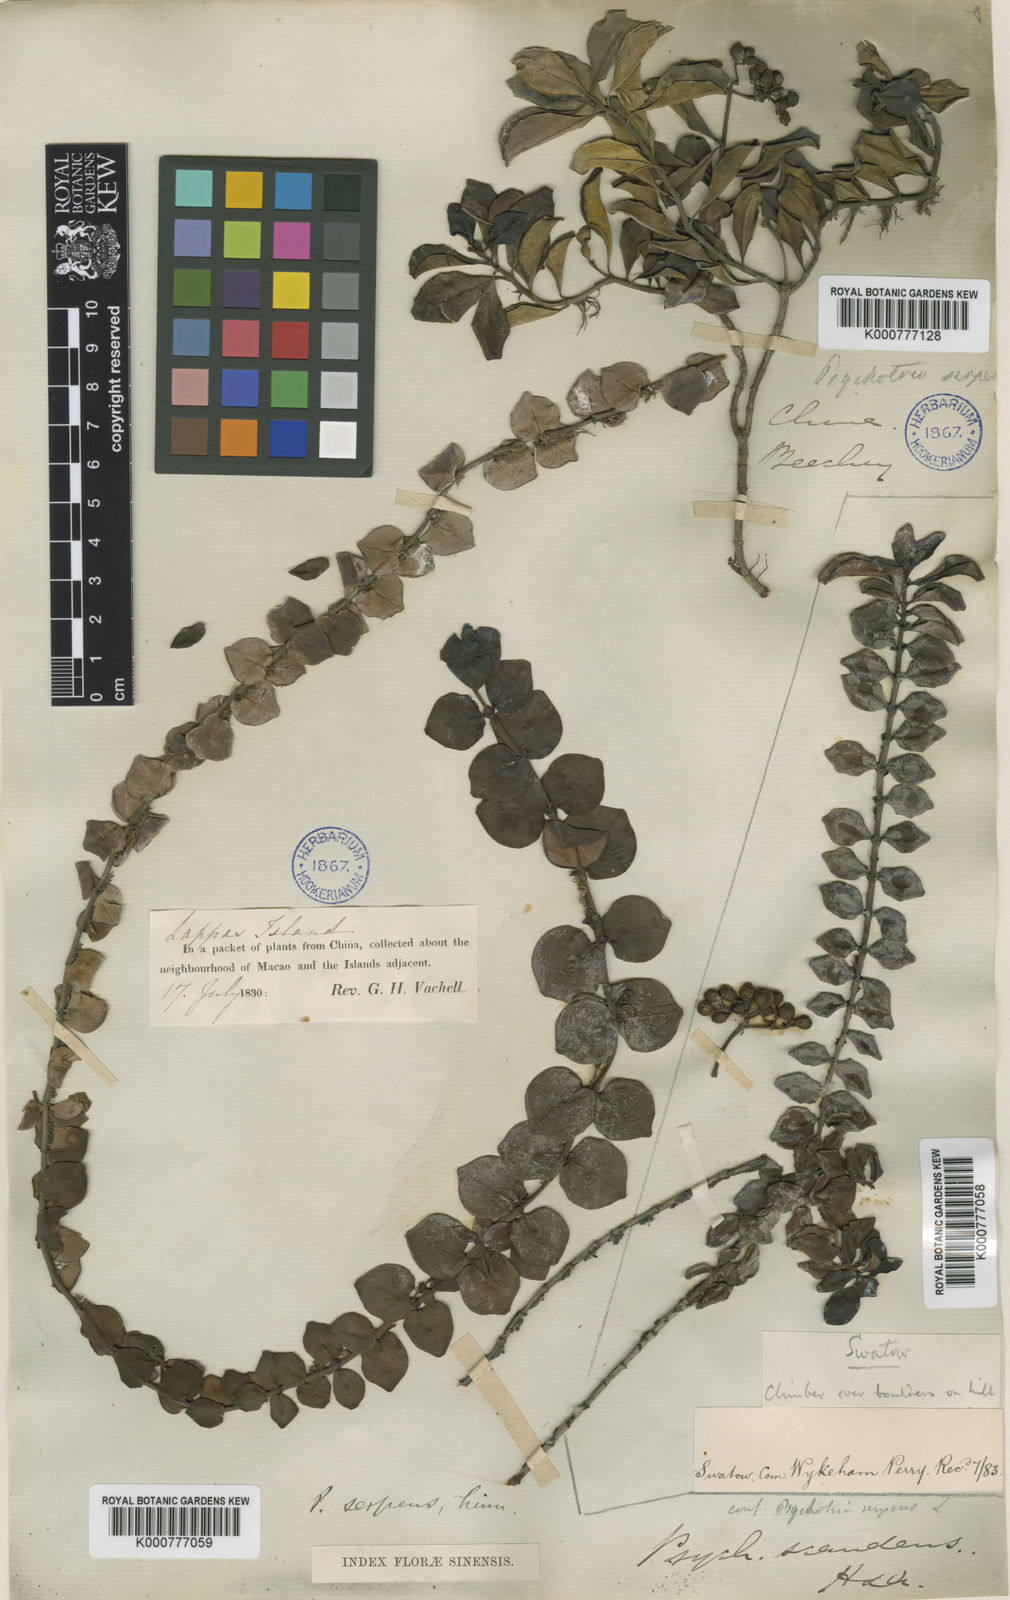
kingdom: Plantae
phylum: Tracheophyta
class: Magnoliopsida
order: Gentianales
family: Rubiaceae
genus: Psychotria
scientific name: Psychotria serpens
